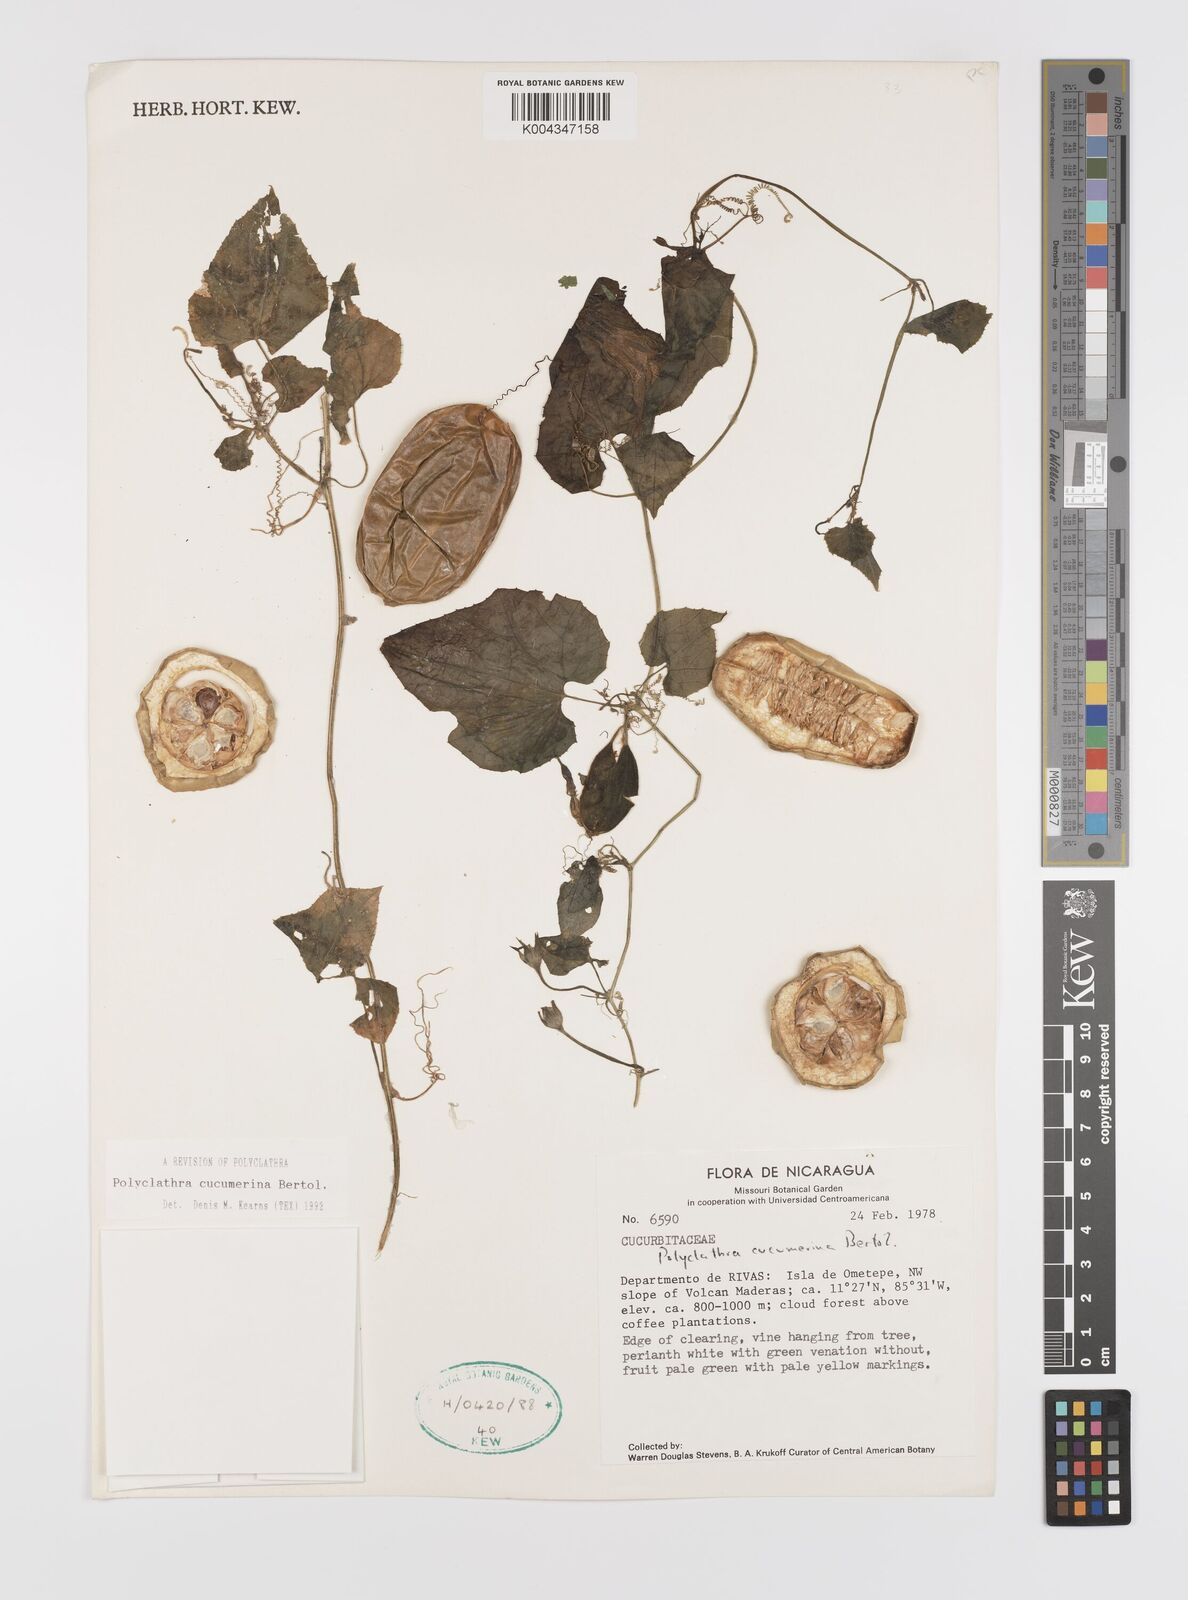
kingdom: Plantae
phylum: Tracheophyta
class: Magnoliopsida
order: Cucurbitales
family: Cucurbitaceae
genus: Polyclathra
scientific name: Polyclathra cucumerina
